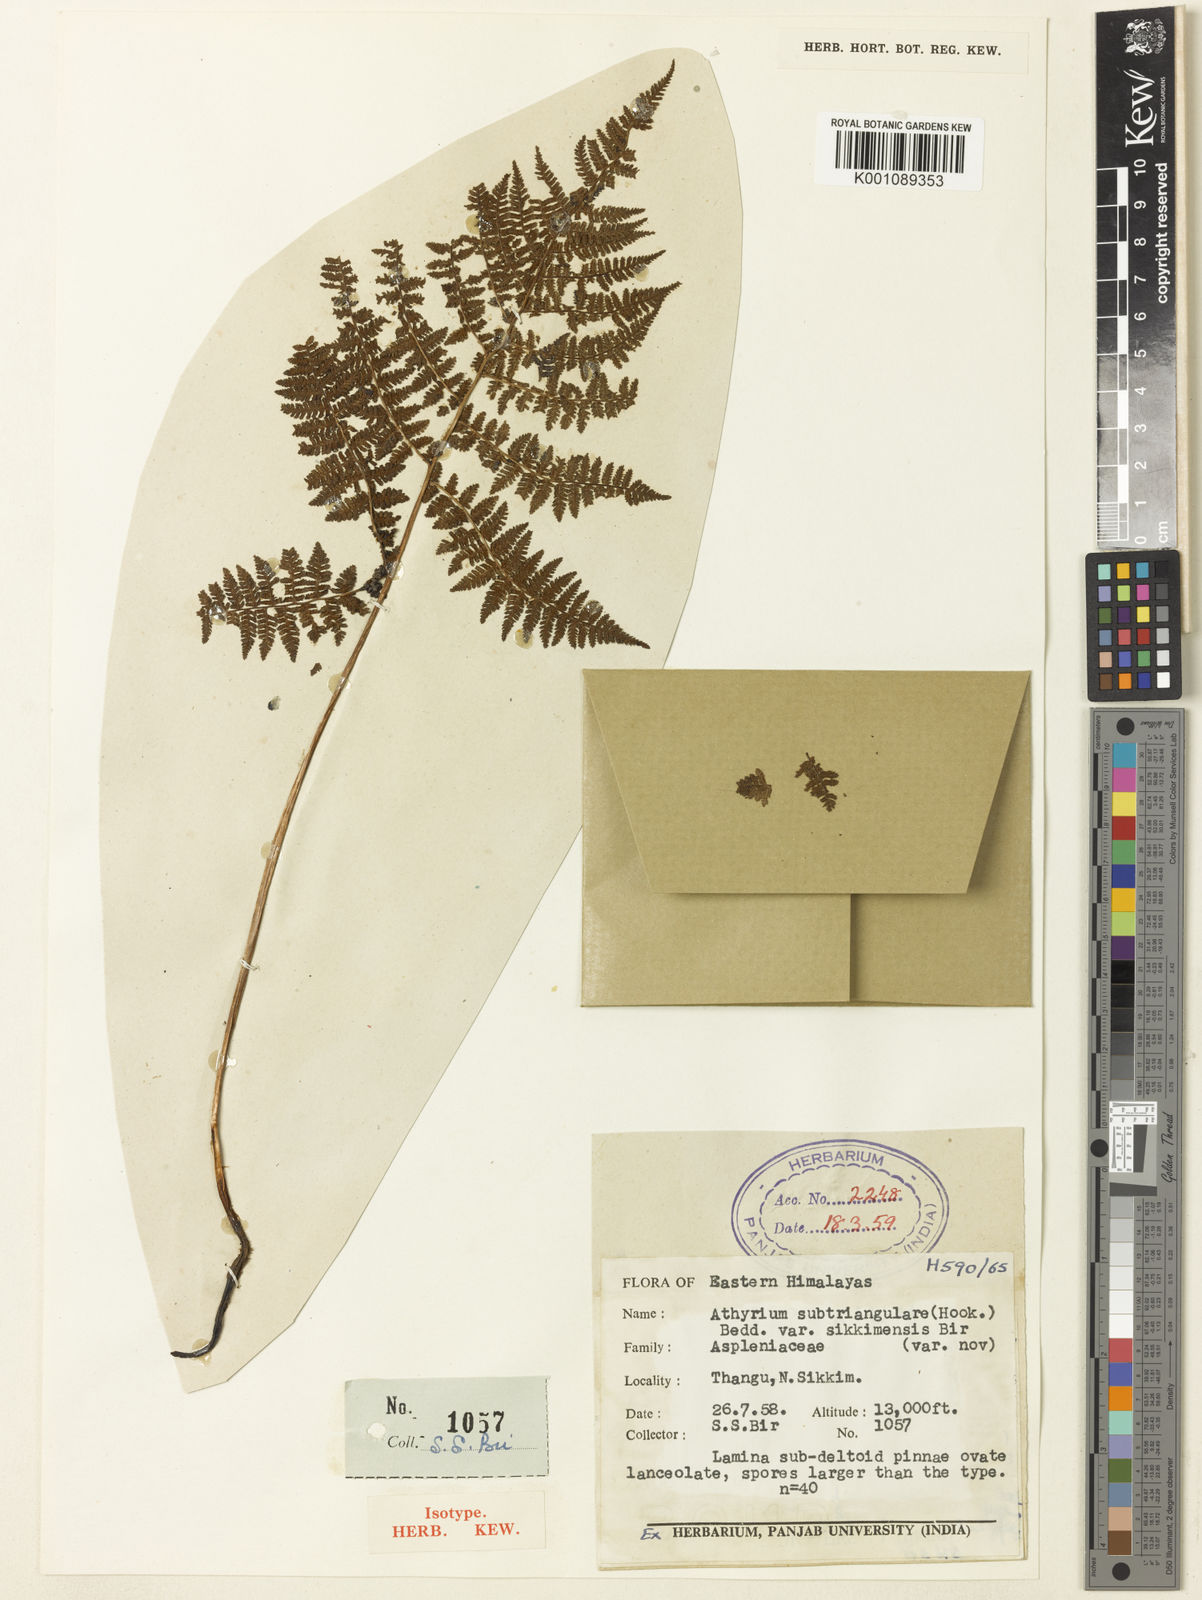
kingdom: Plantae
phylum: Tracheophyta
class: Polypodiopsida
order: Polypodiales
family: Athyriaceae
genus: Athyrium
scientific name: Athyrium spinulosum
